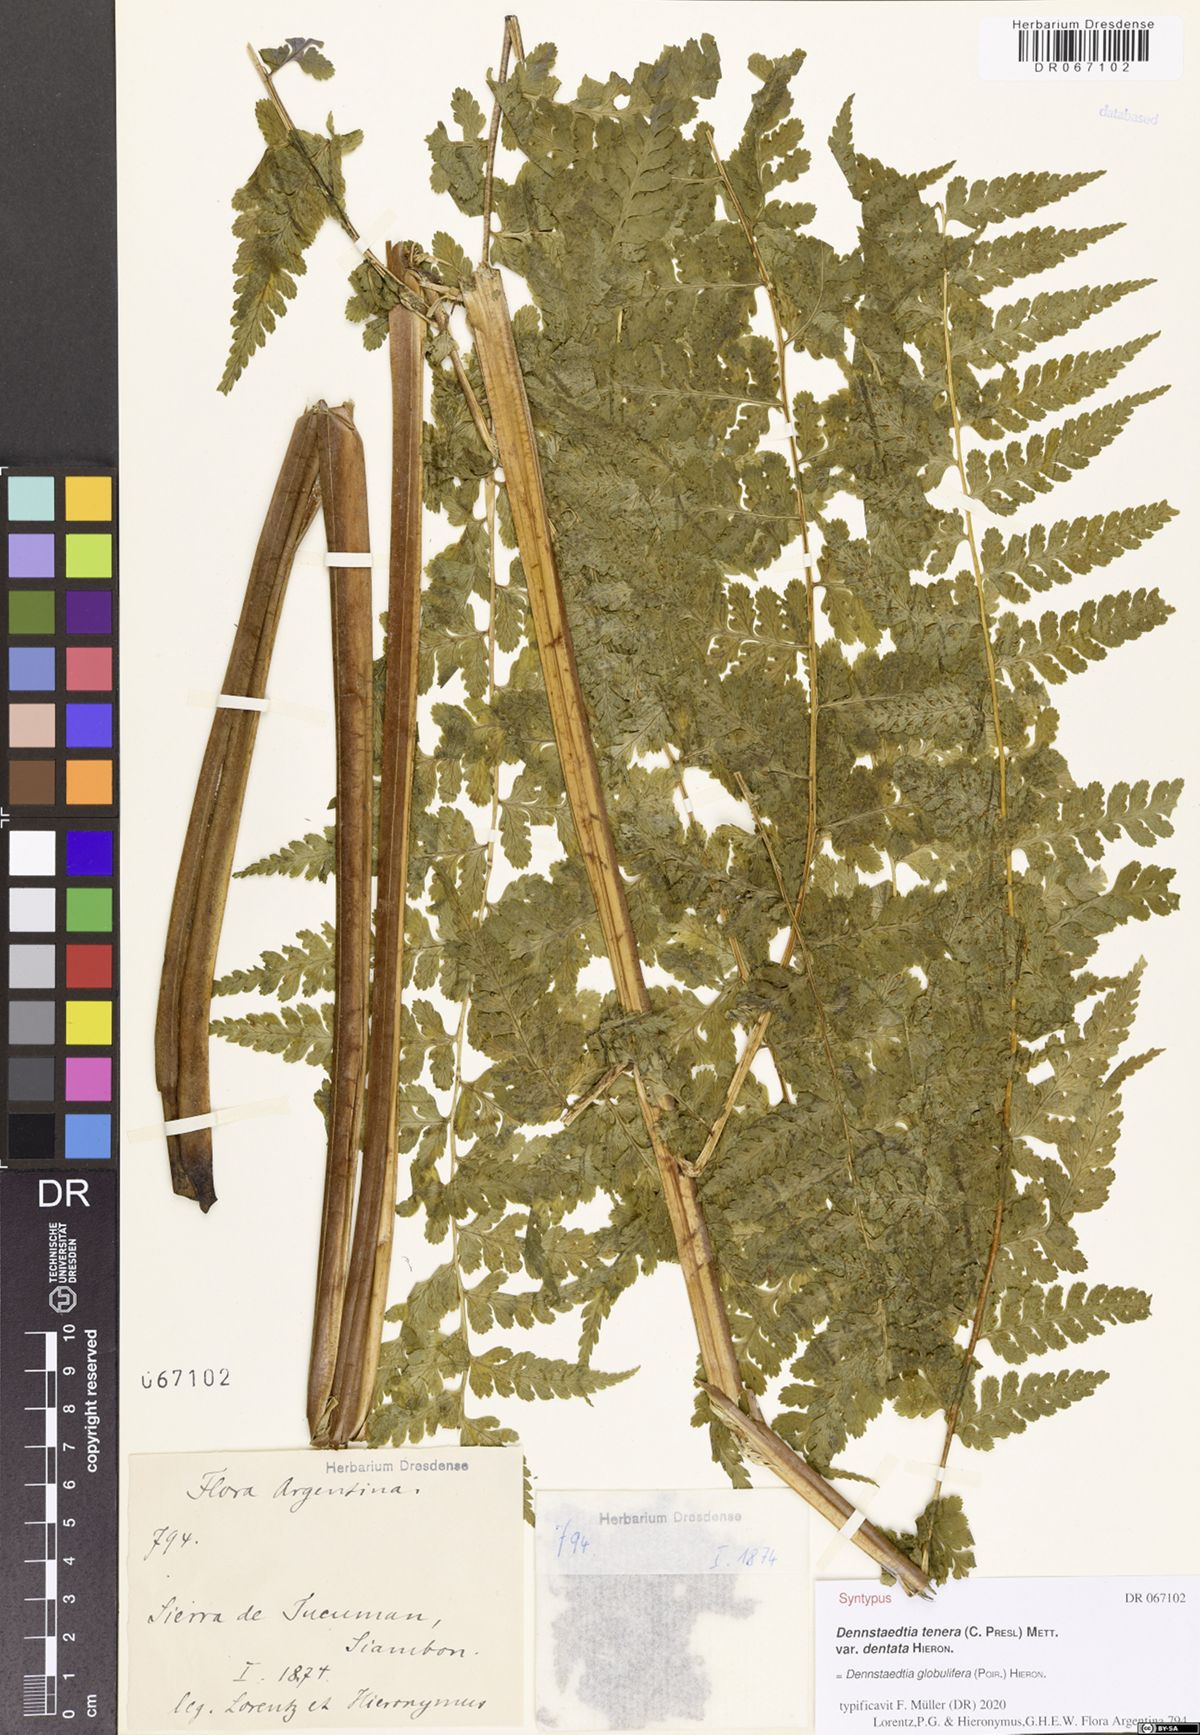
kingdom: Plantae
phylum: Tracheophyta
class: Polypodiopsida
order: Polypodiales
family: Dennstaedtiaceae
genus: Mucura
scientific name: Mucura globulifera
